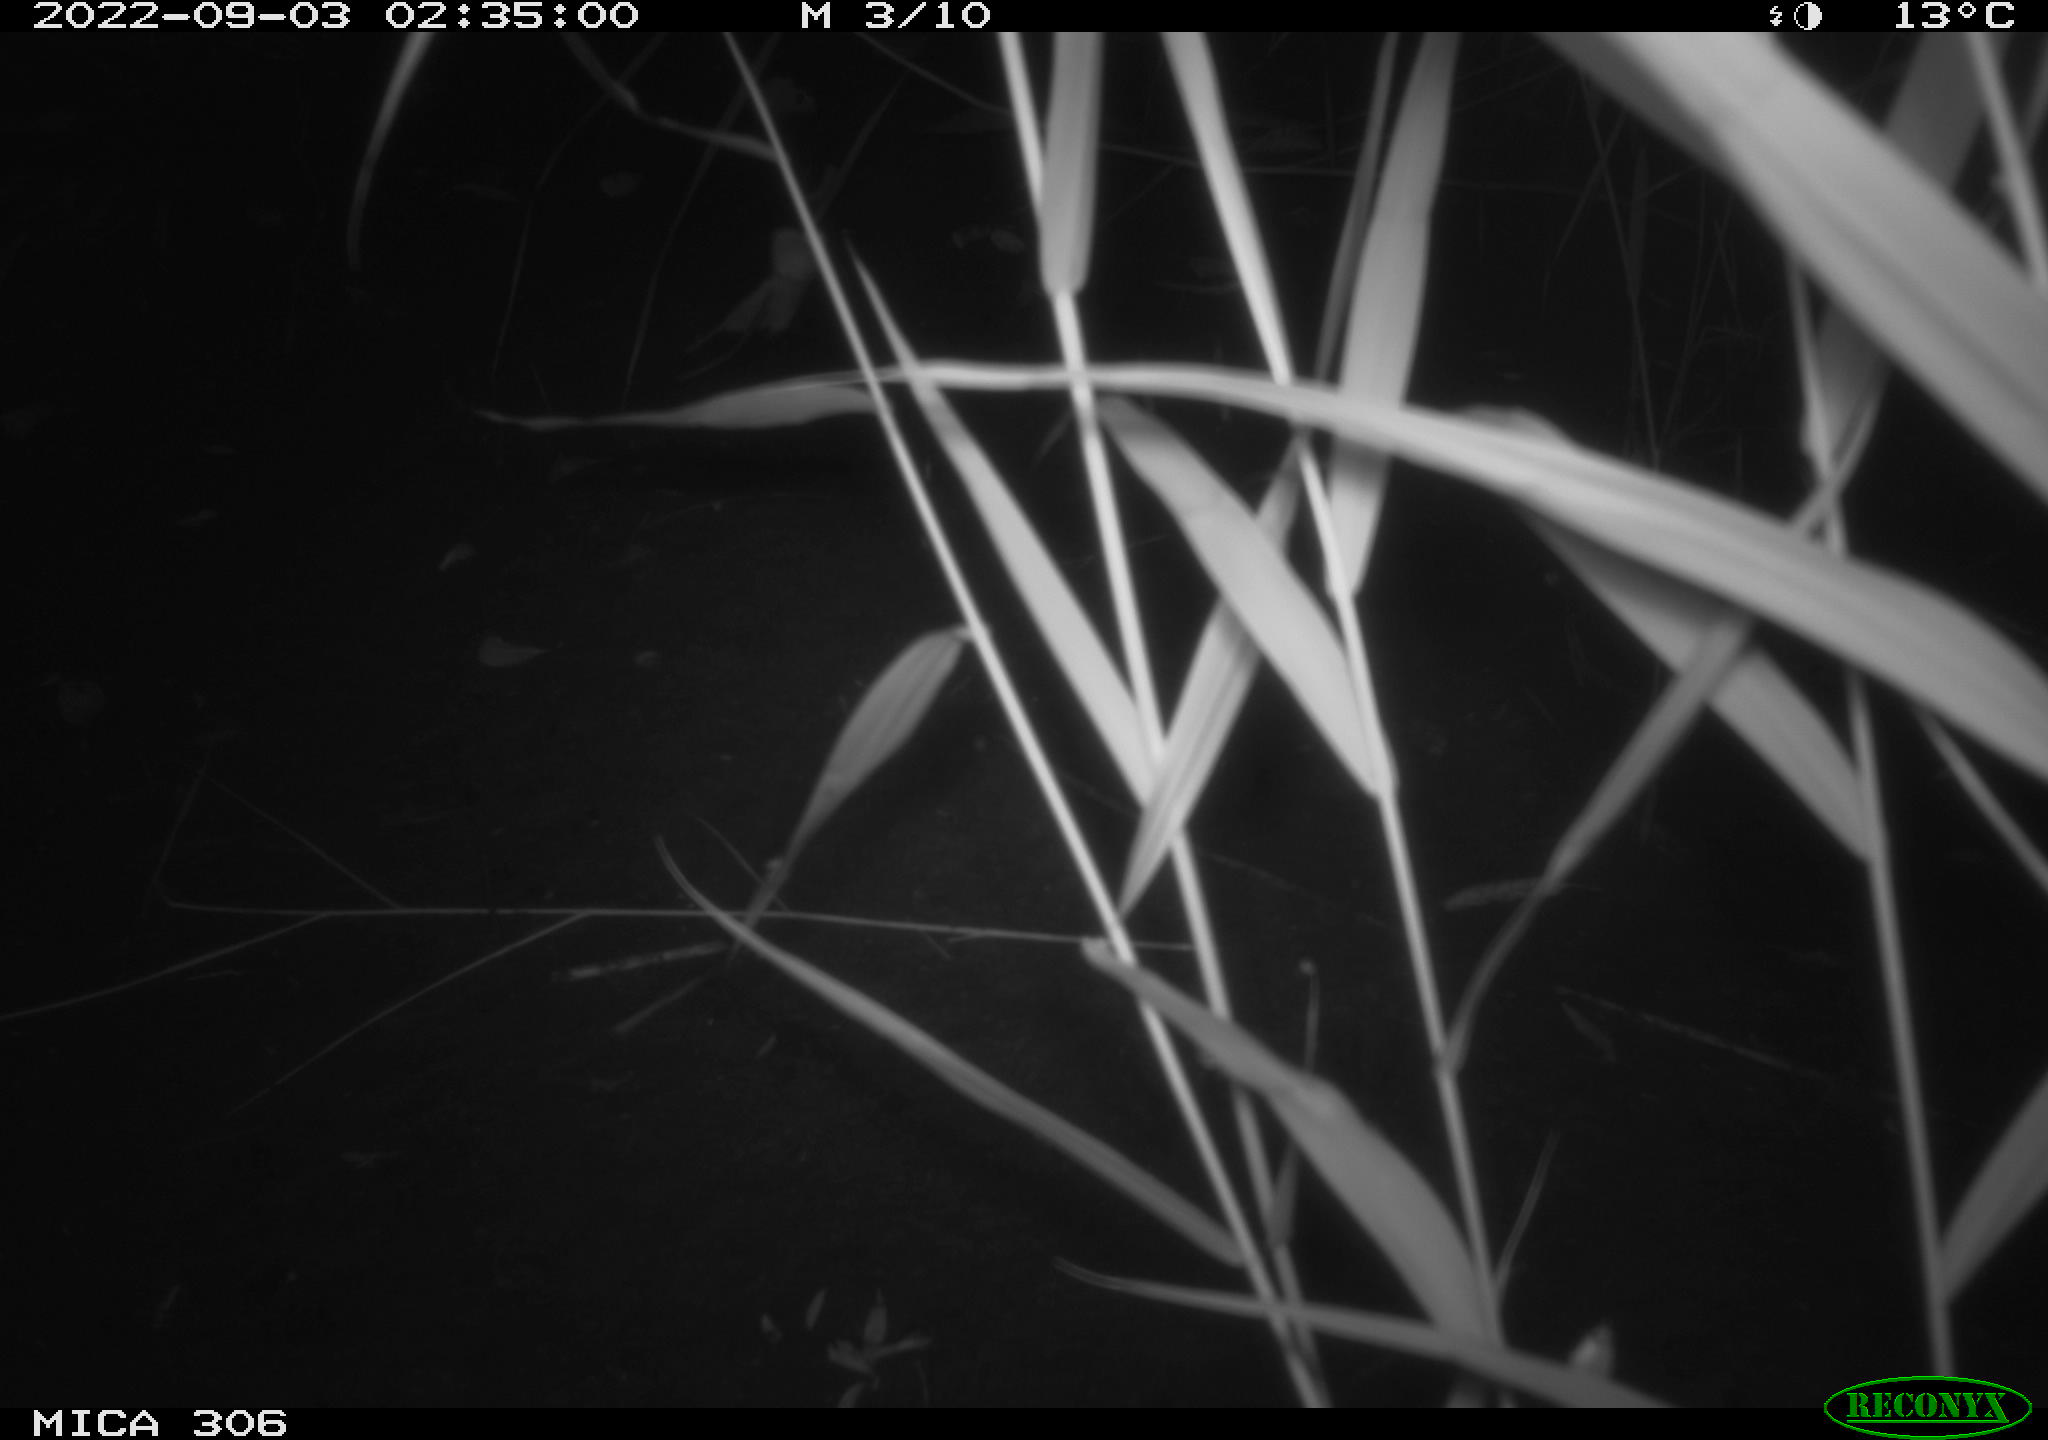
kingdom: Animalia
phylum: Chordata
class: Mammalia
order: Rodentia
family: Muridae
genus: Rattus
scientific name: Rattus norvegicus
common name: Brown rat
